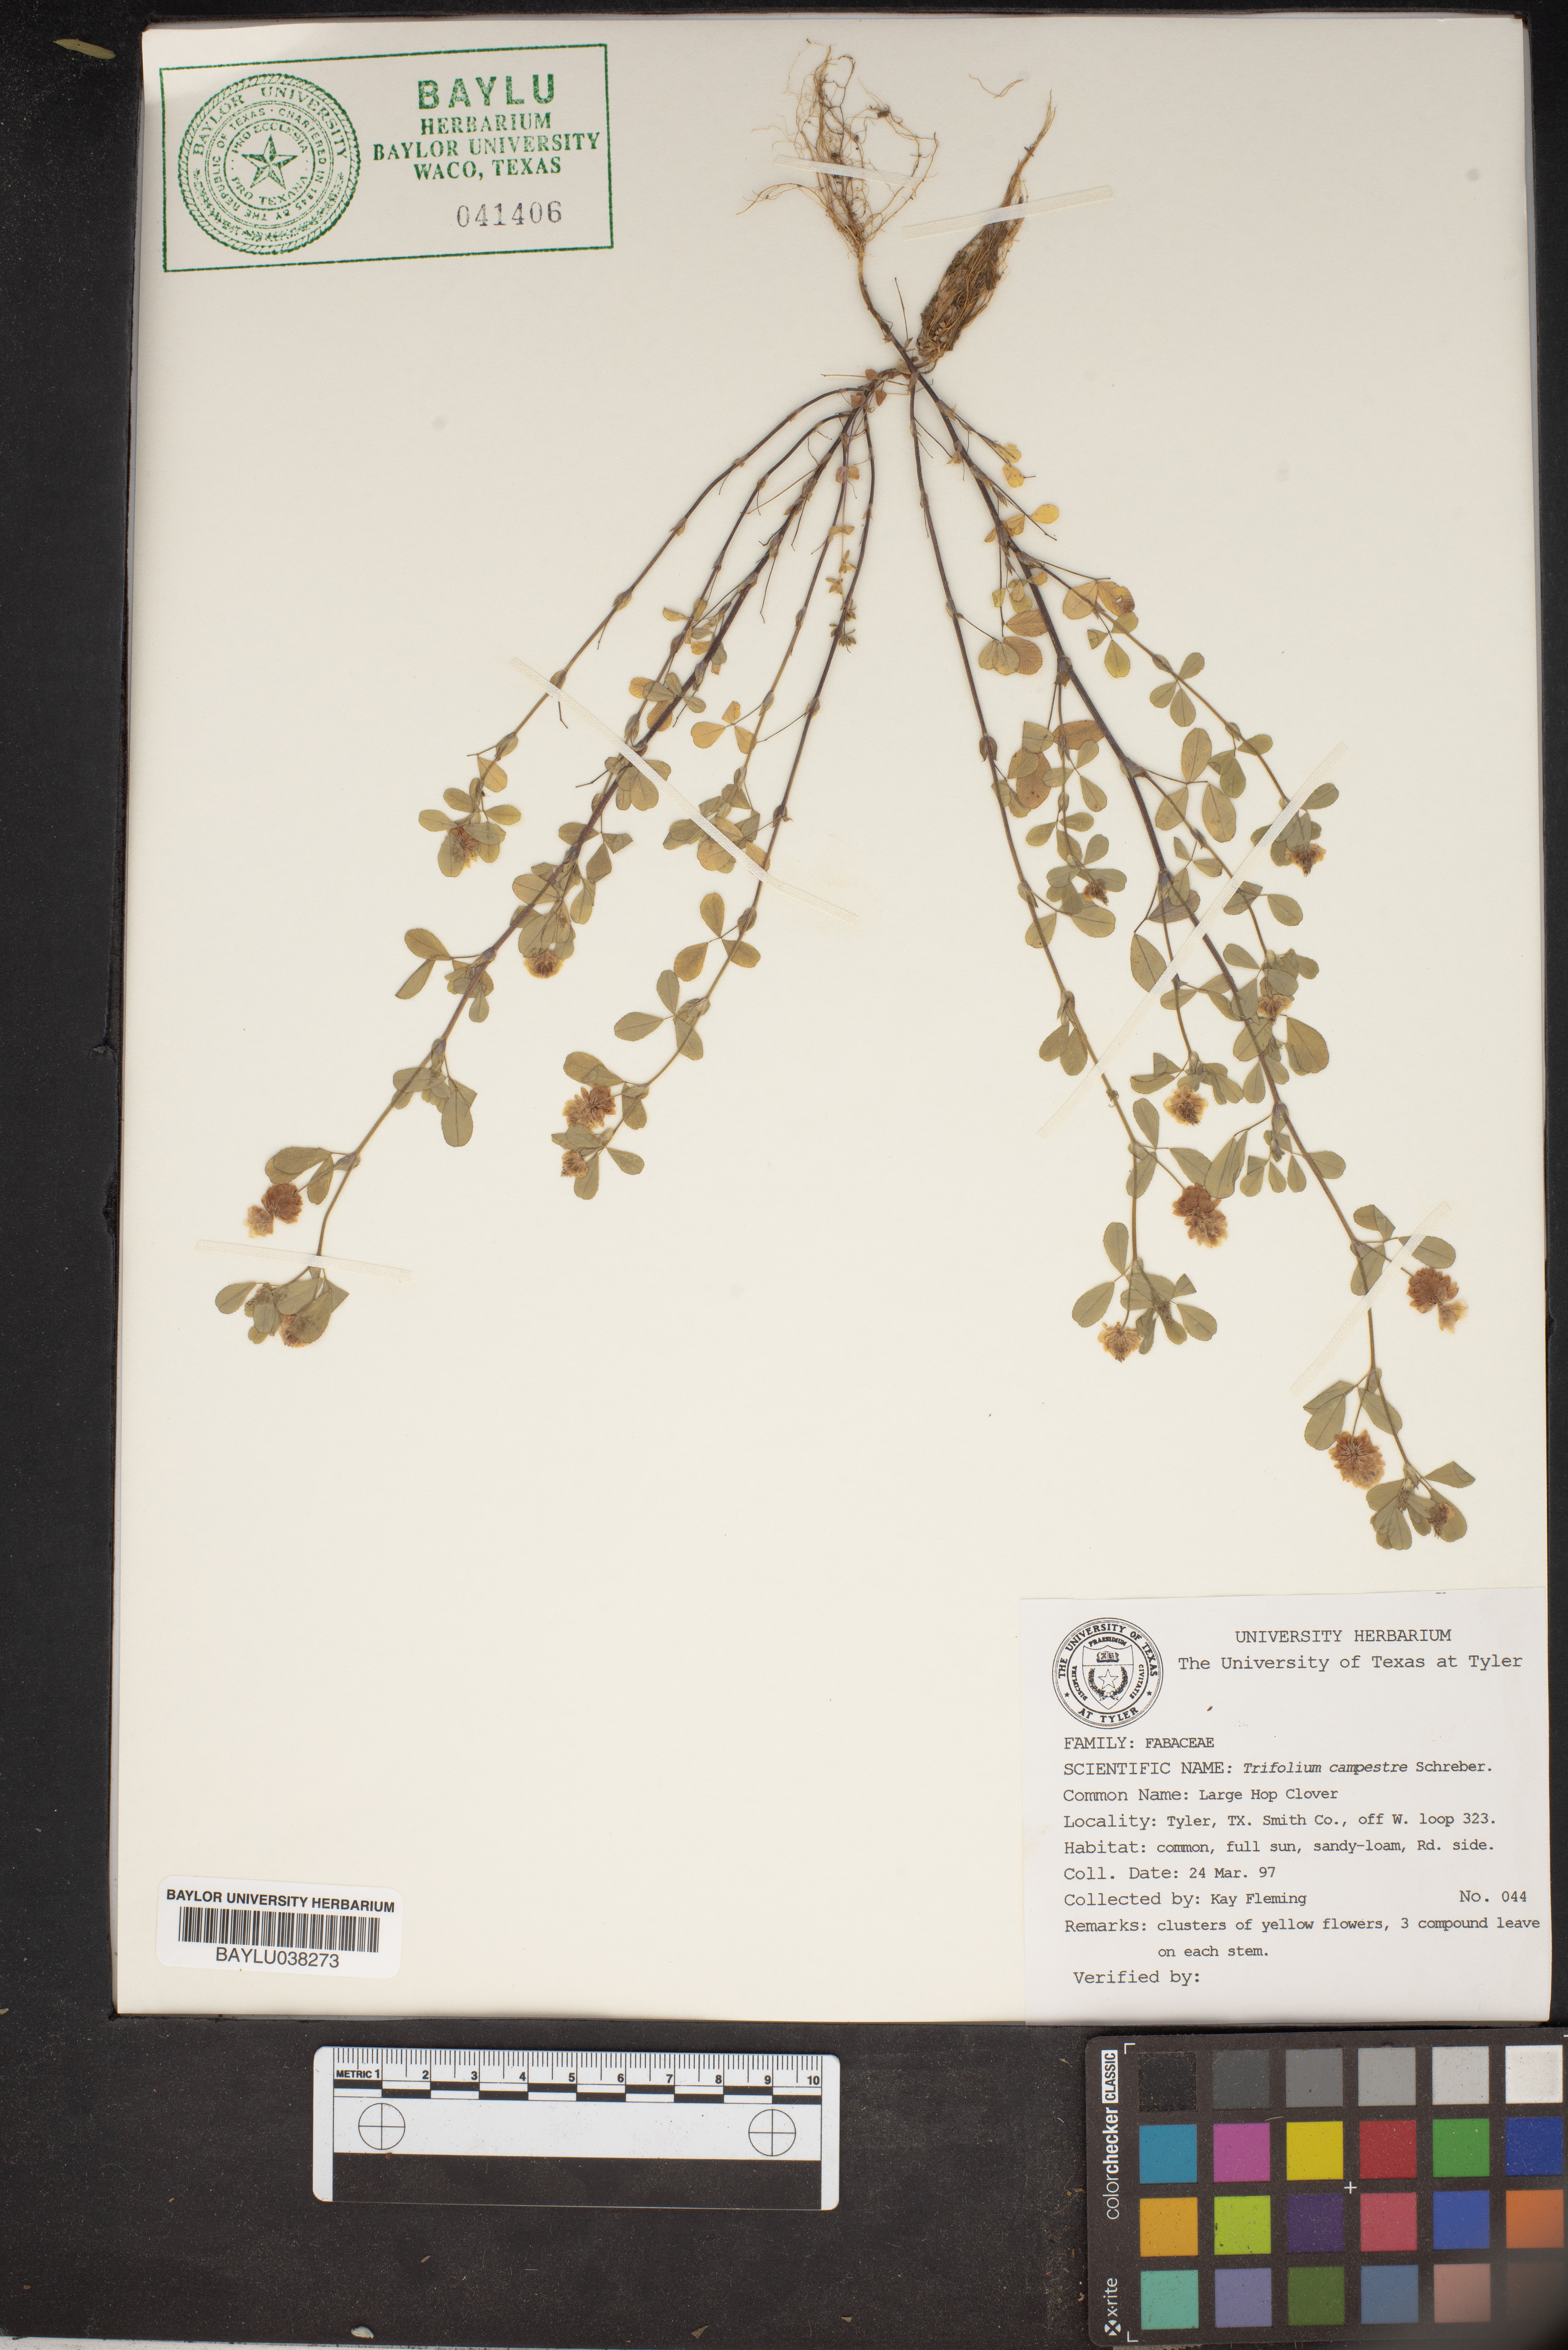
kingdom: Plantae
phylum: Tracheophyta
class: Magnoliopsida
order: Fabales
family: Fabaceae
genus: Trifolium
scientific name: Trifolium campestre
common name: Field clover
